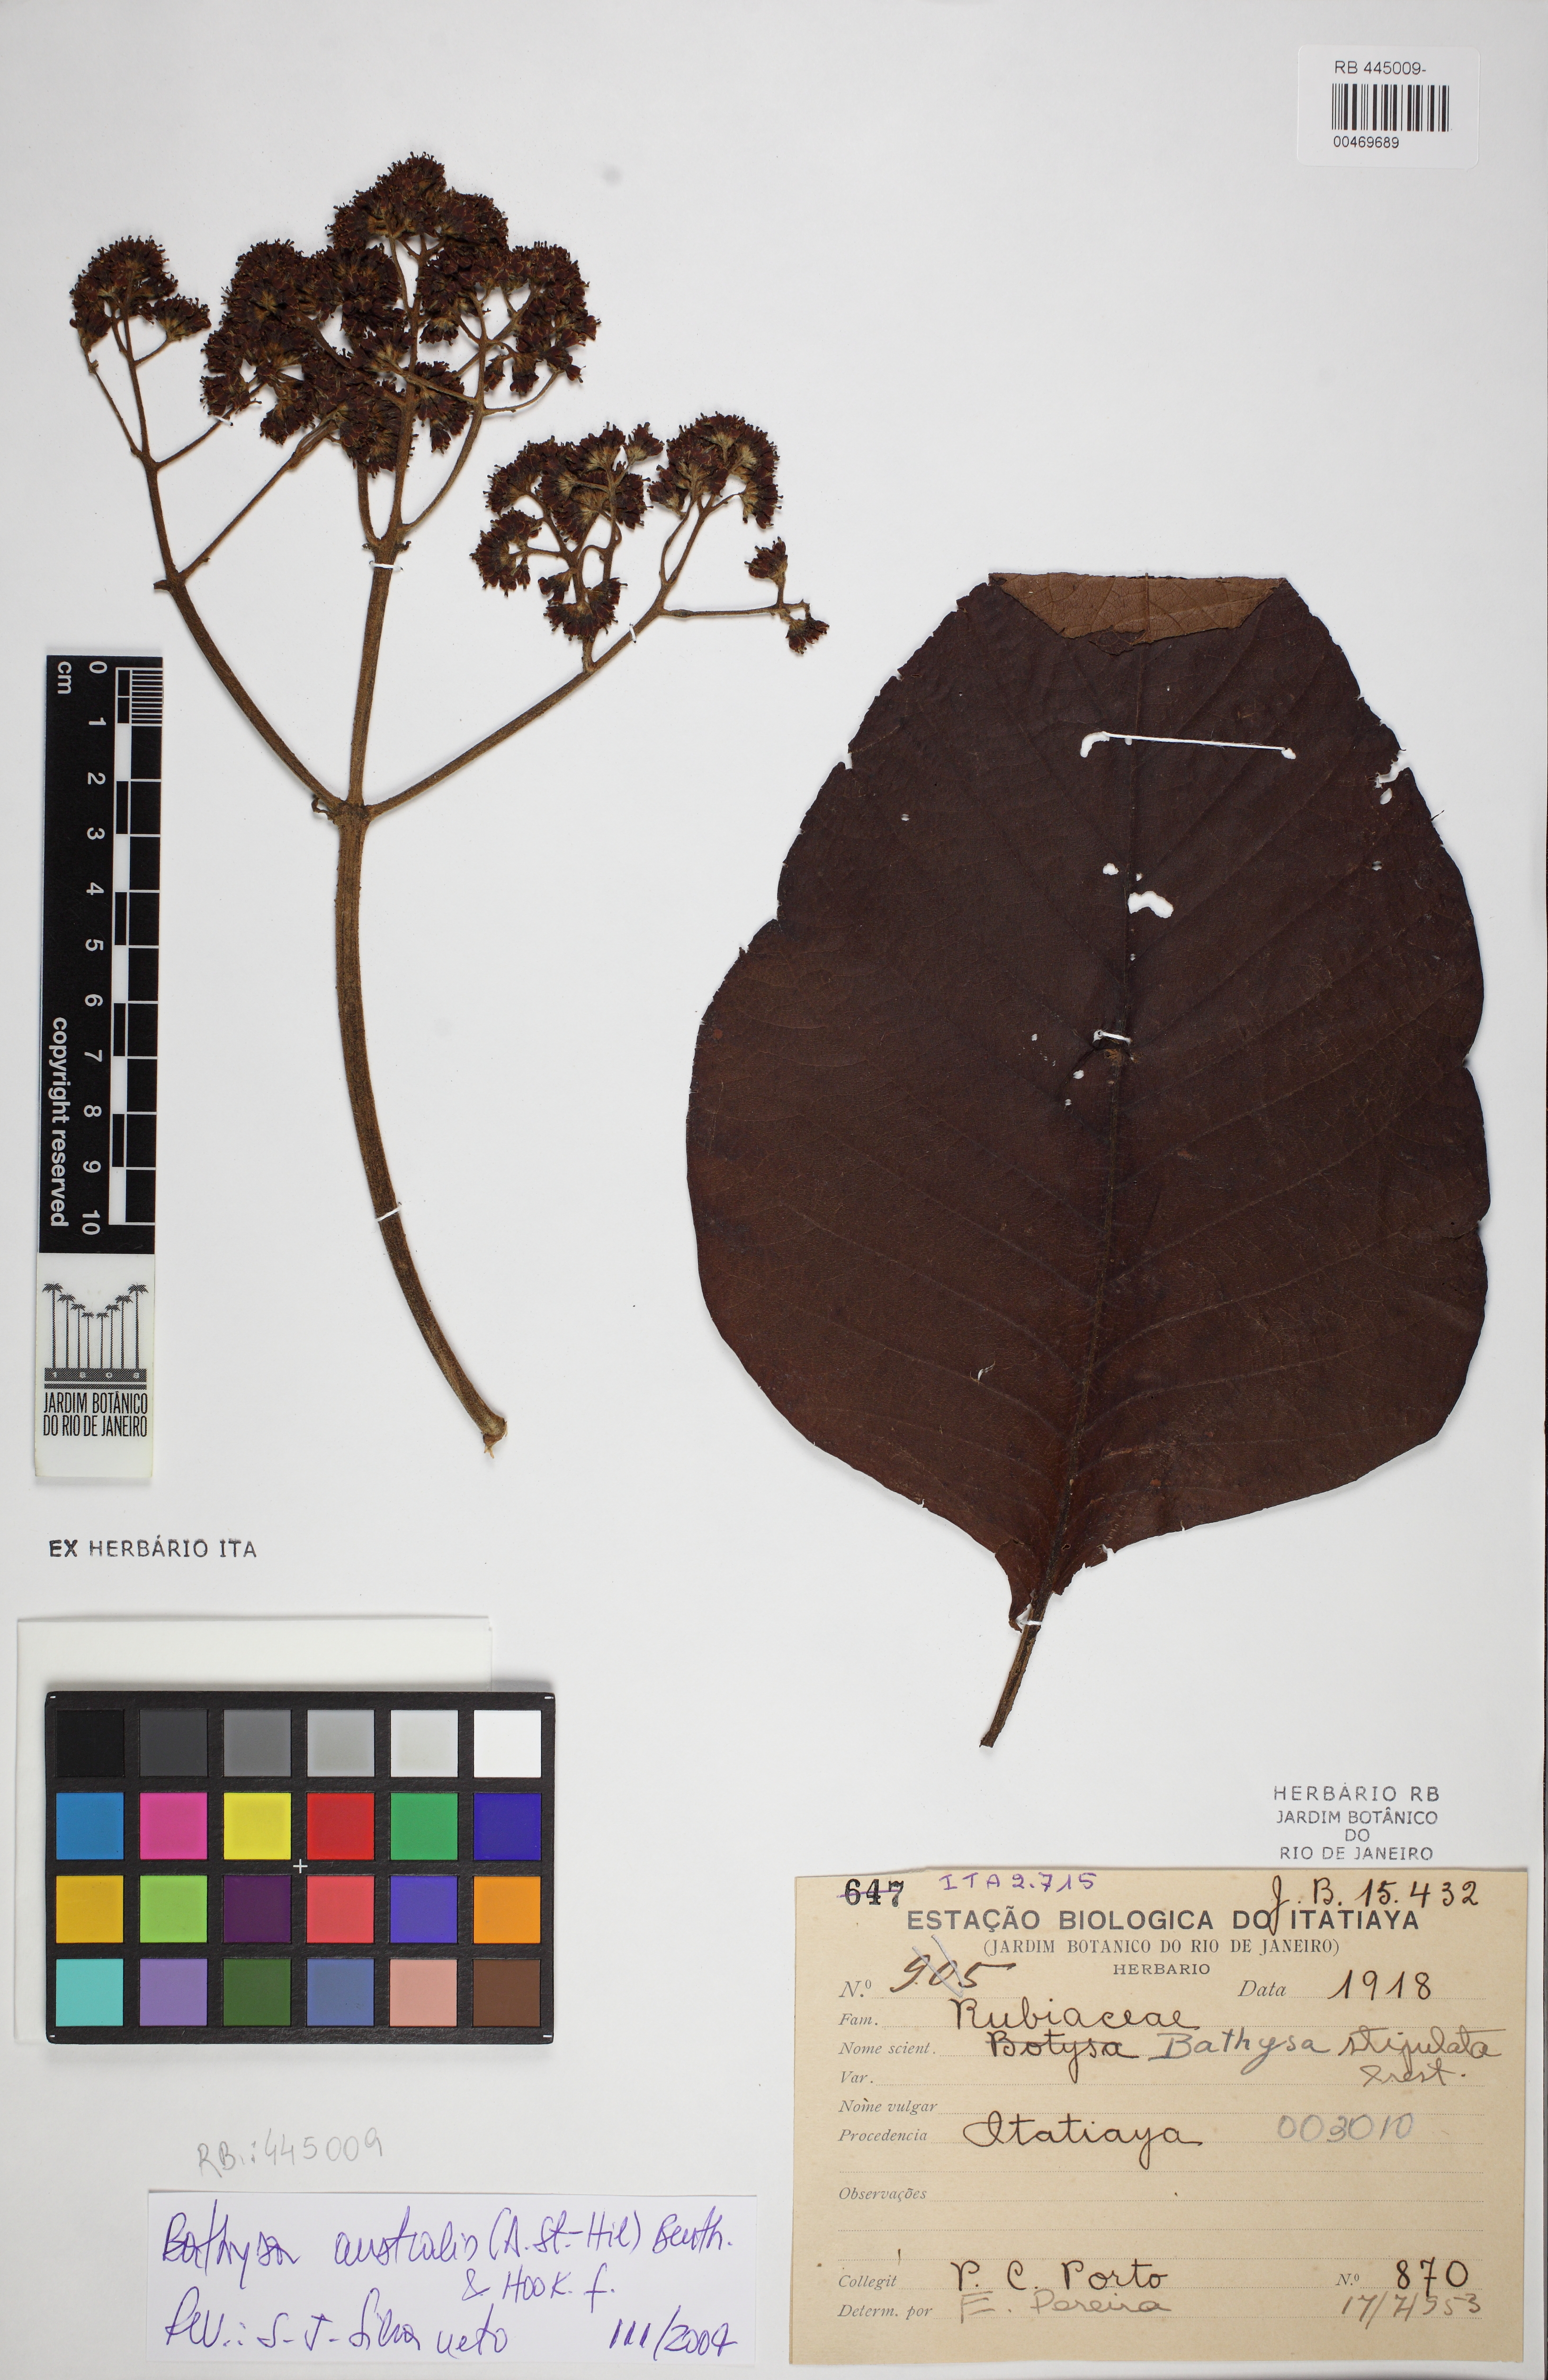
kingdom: Plantae
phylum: Tracheophyta
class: Magnoliopsida
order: Gentianales
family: Rubiaceae
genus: Bathysa
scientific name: Bathysa australis
